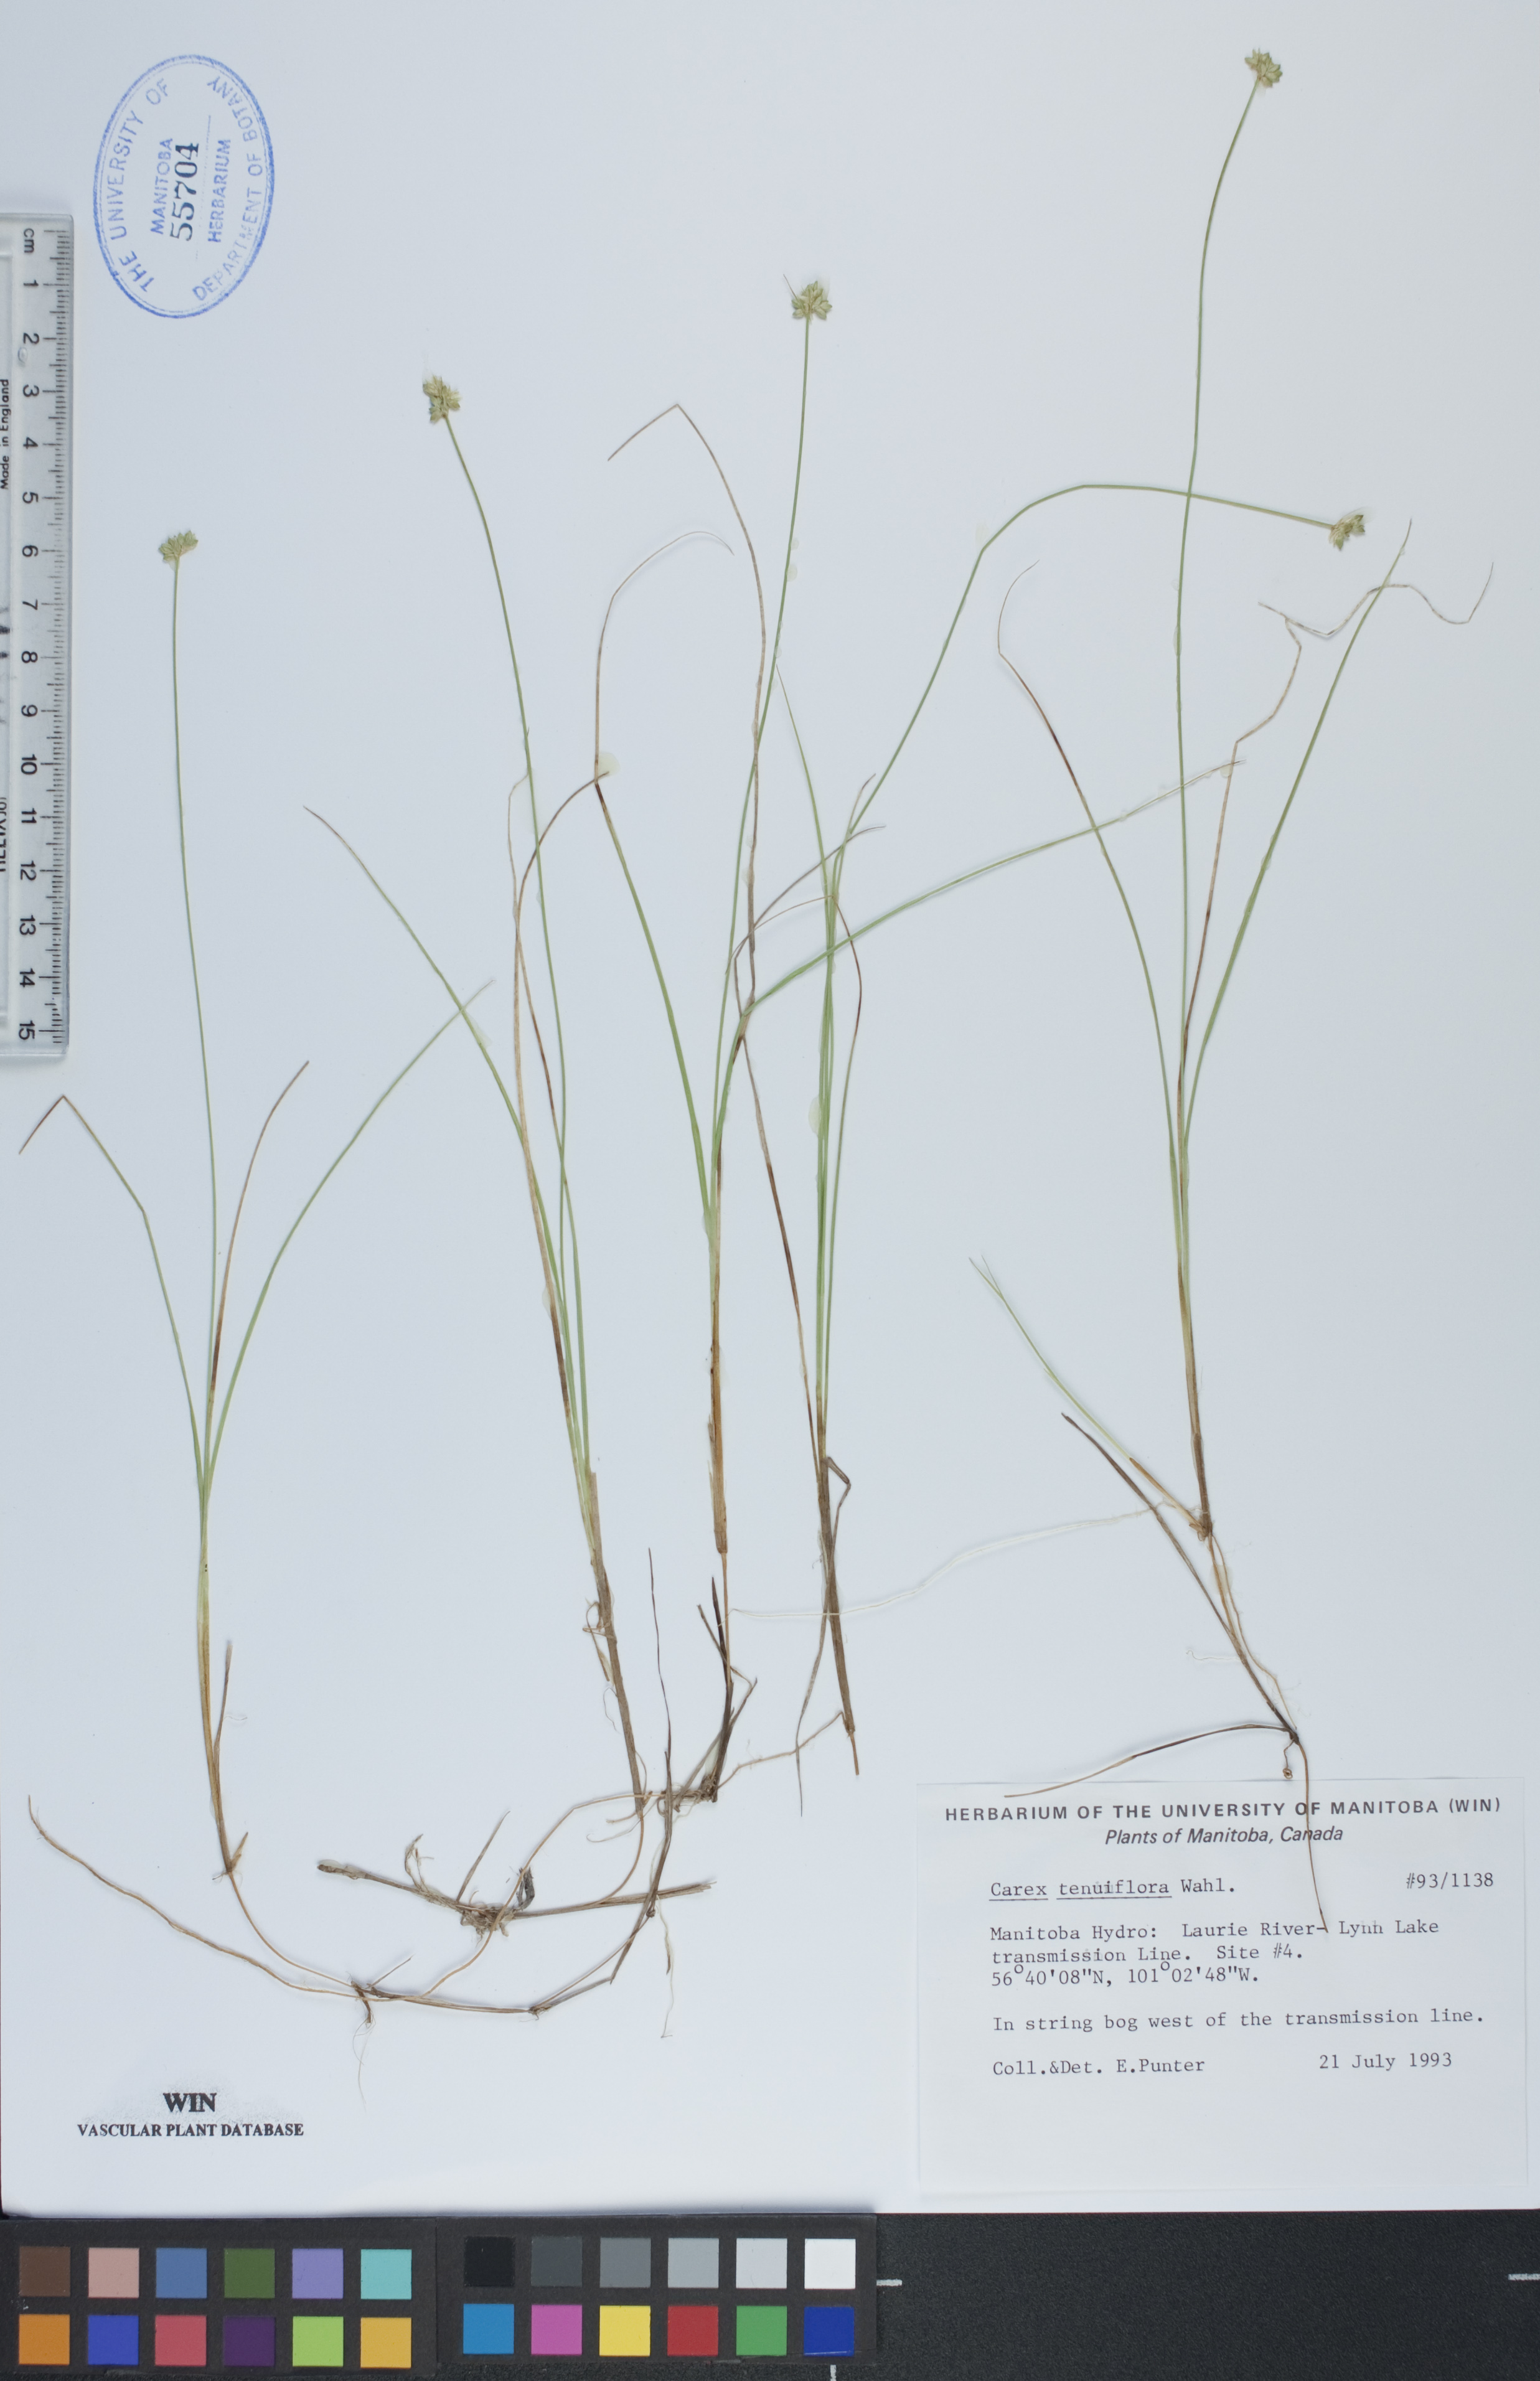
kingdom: Plantae
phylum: Tracheophyta
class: Liliopsida
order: Poales
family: Cyperaceae
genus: Carex
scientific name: Carex tenuiflora
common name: Sparse-flowered sedge
